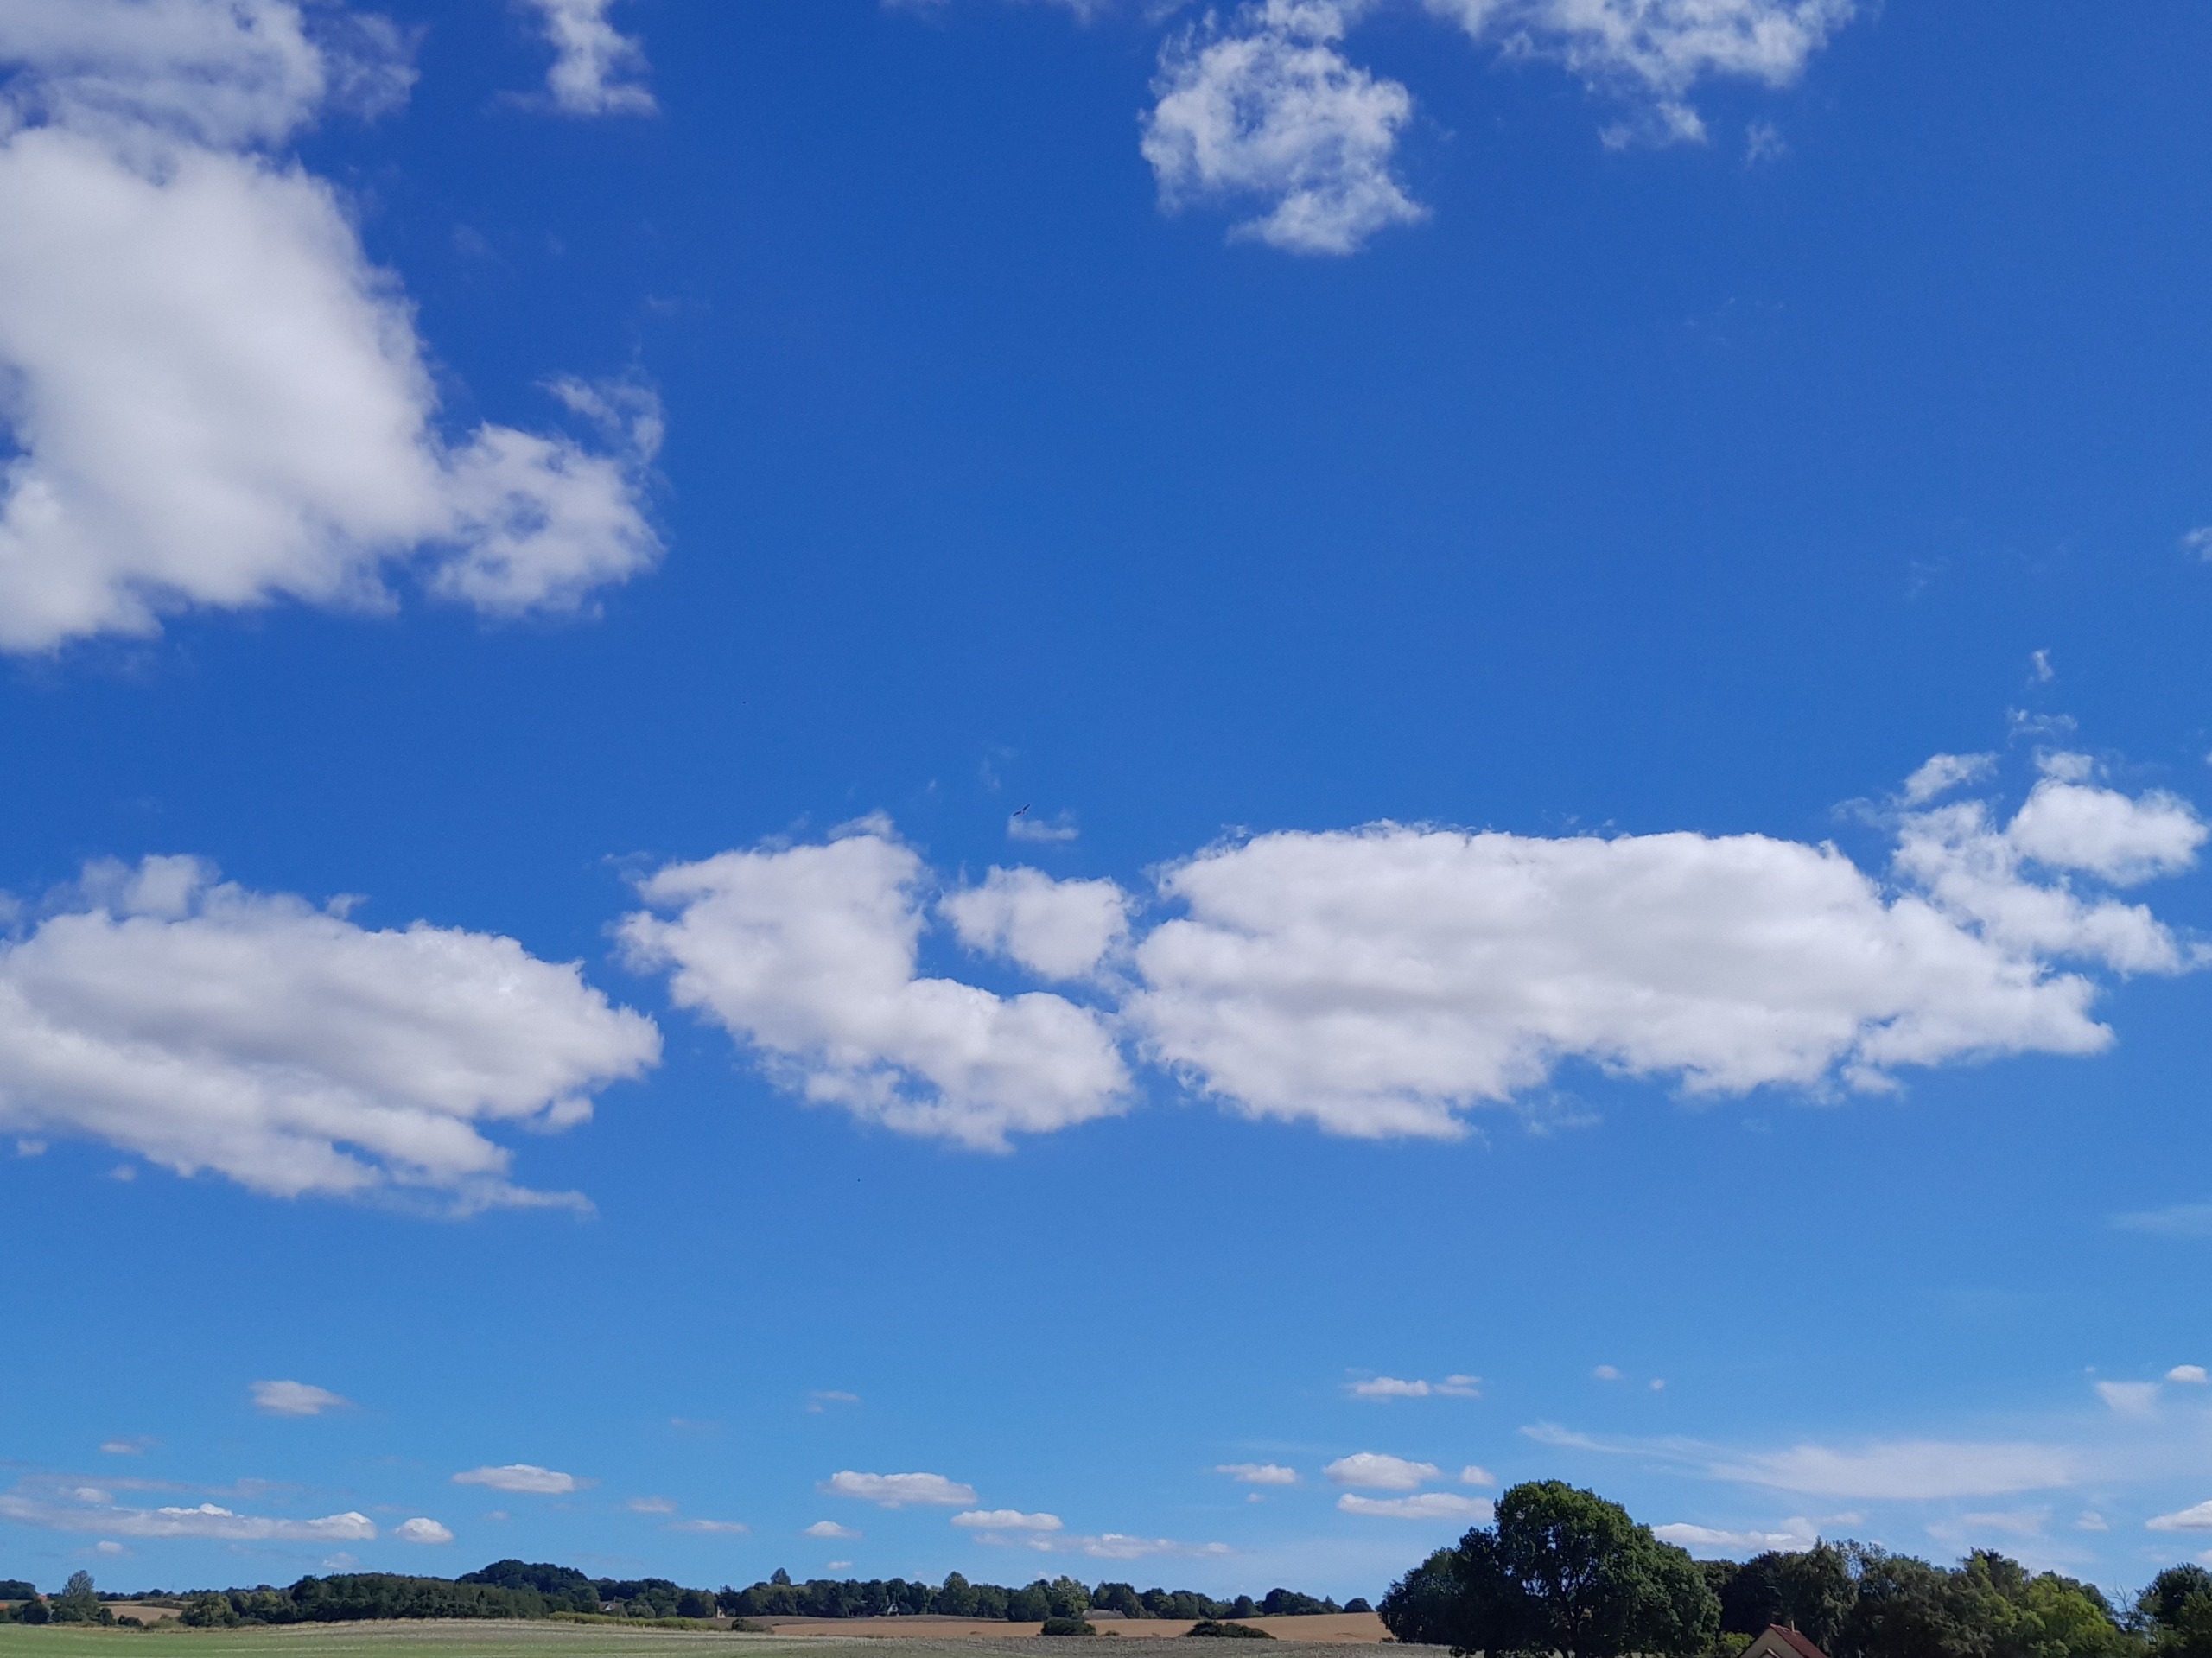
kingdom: Animalia
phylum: Chordata
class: Aves
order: Accipitriformes
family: Pandionidae
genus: Pandion
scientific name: Pandion haliaetus
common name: Fiskeørn
